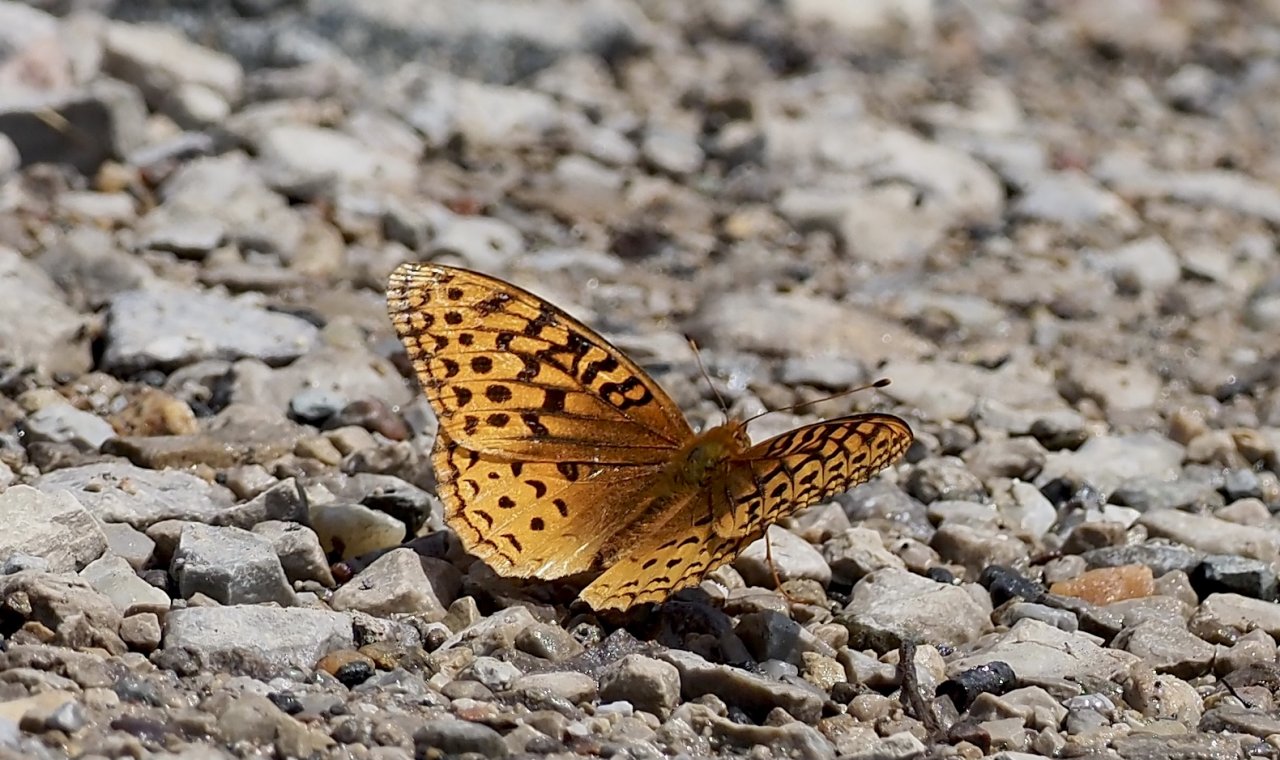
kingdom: Animalia
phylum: Arthropoda
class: Insecta
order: Lepidoptera
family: Nymphalidae
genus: Speyeria
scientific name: Speyeria cybele
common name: Great Spangled Fritillary
